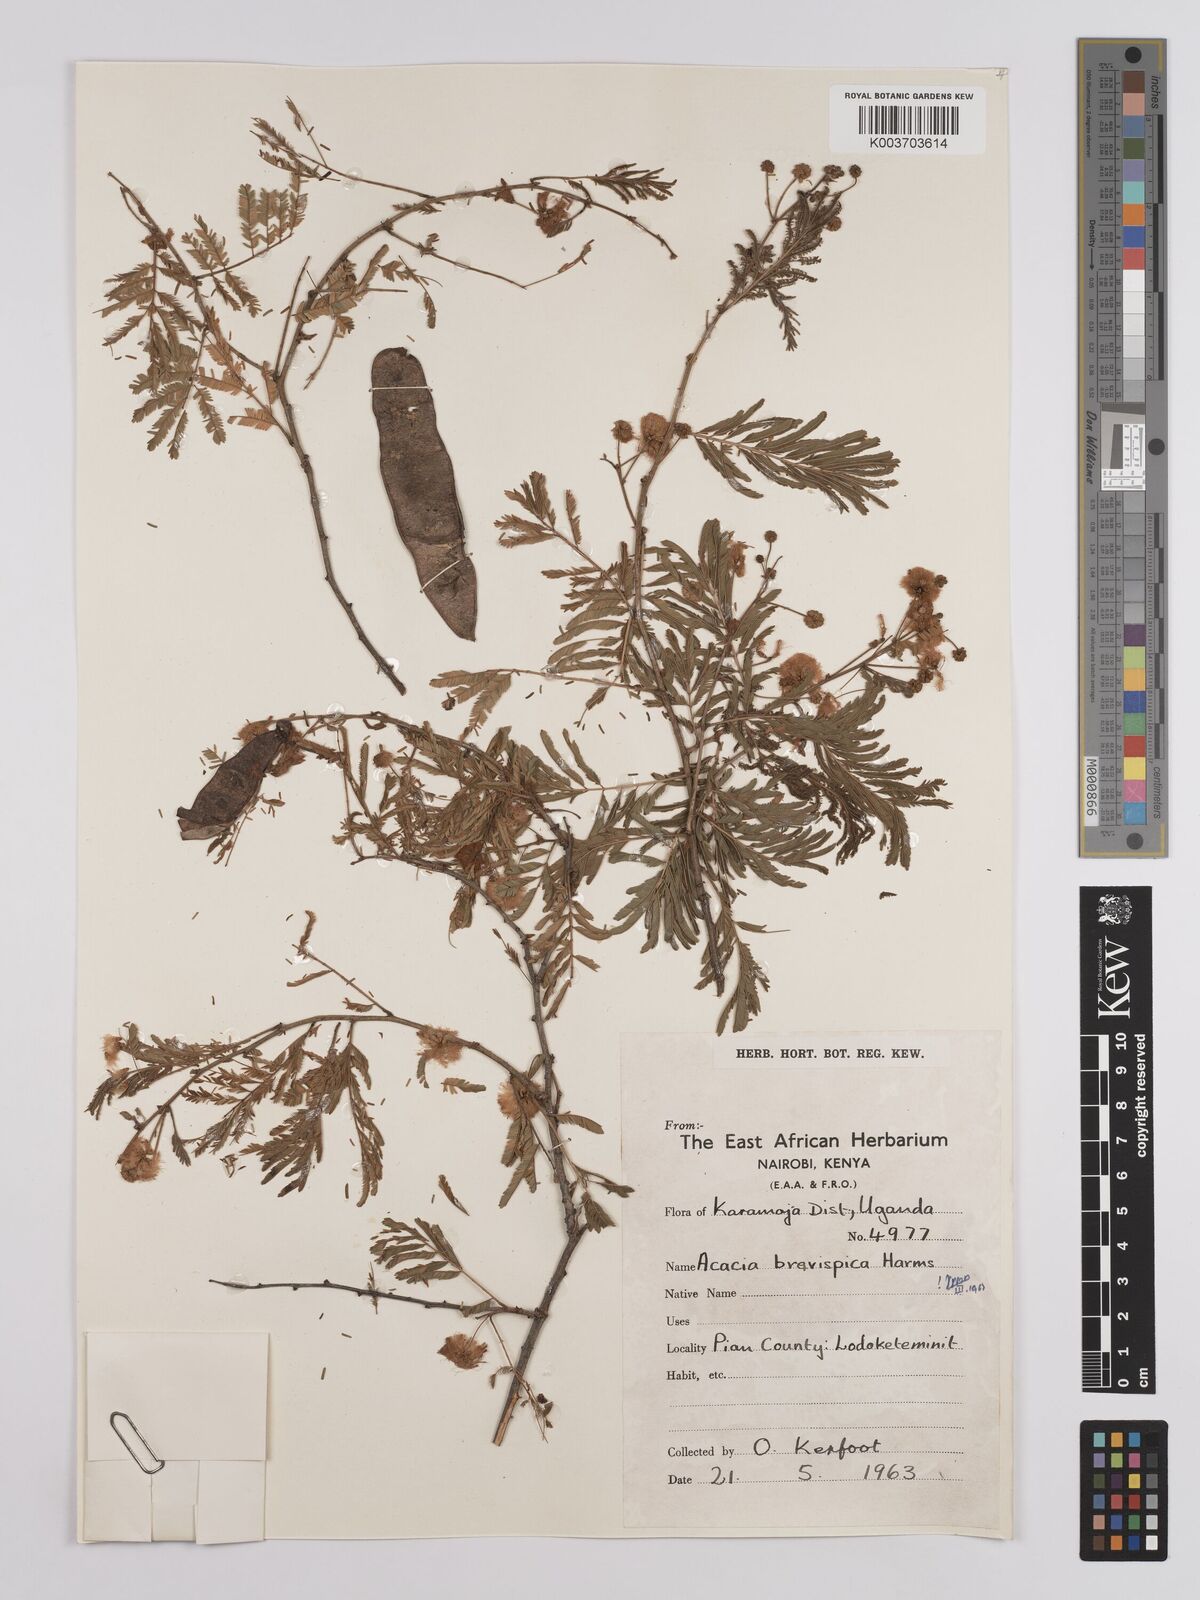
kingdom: Plantae
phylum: Tracheophyta
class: Magnoliopsida
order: Fabales
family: Fabaceae
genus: Senegalia
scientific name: Senegalia brevispica
